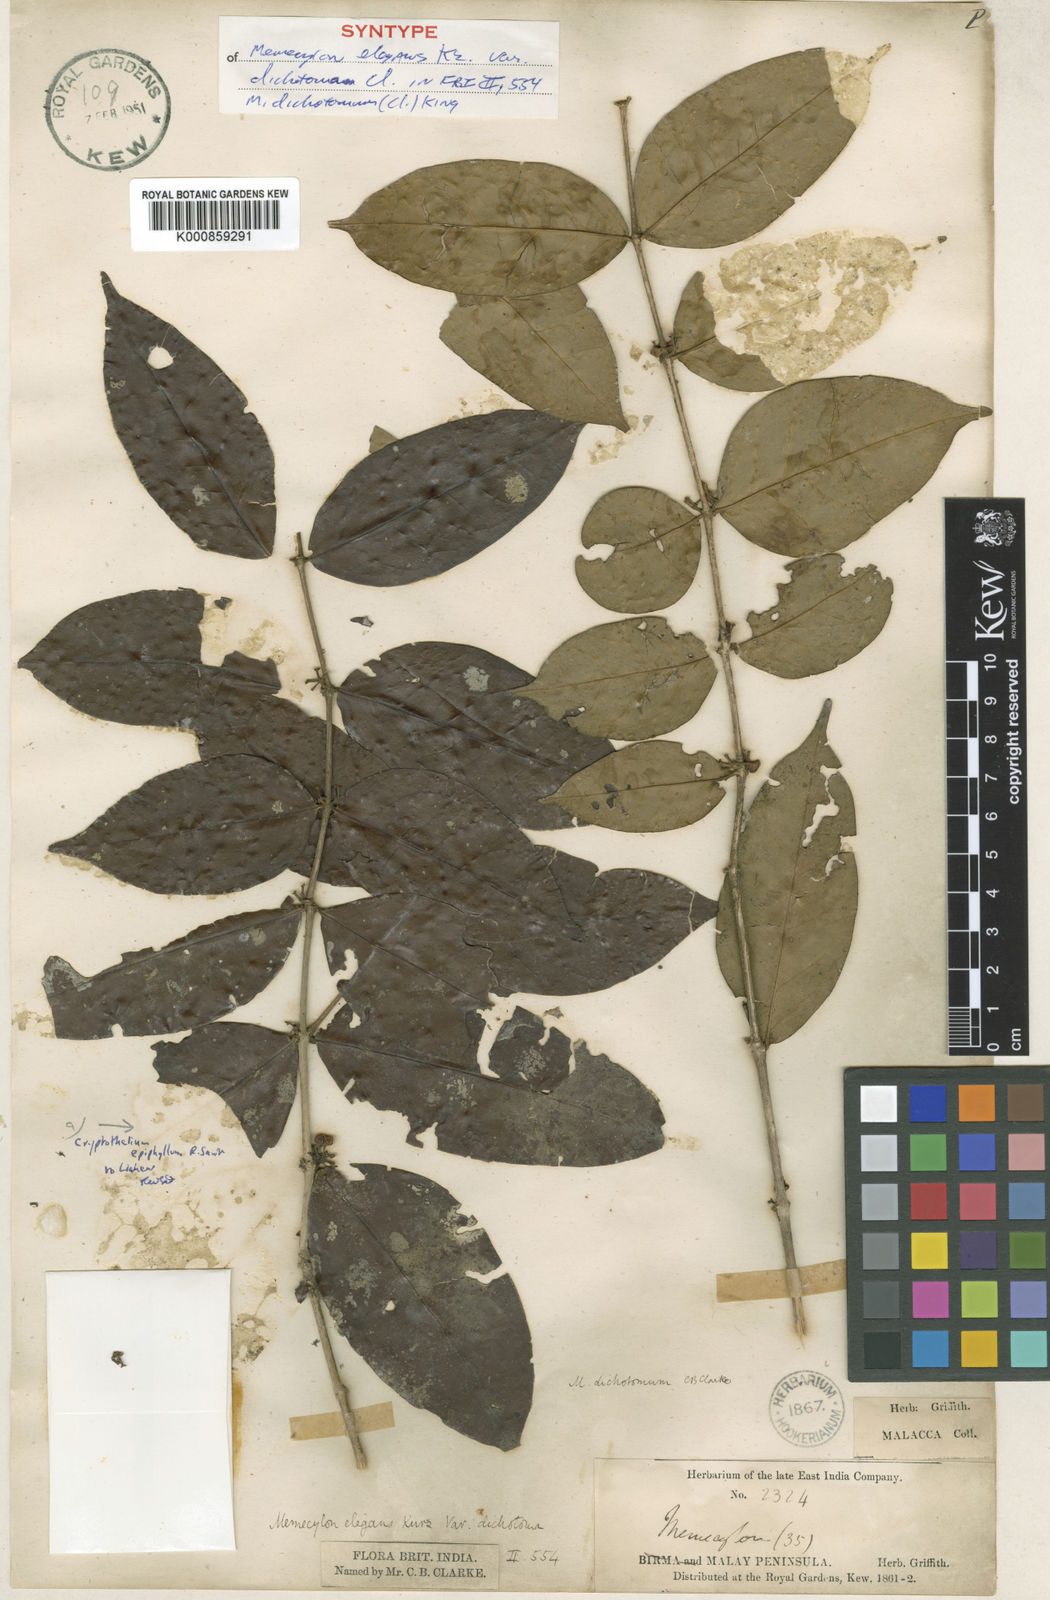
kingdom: Plantae
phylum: Tracheophyta
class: Magnoliopsida
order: Myrtales
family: Melastomataceae
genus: Memecylon
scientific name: Memecylon dichotomum
